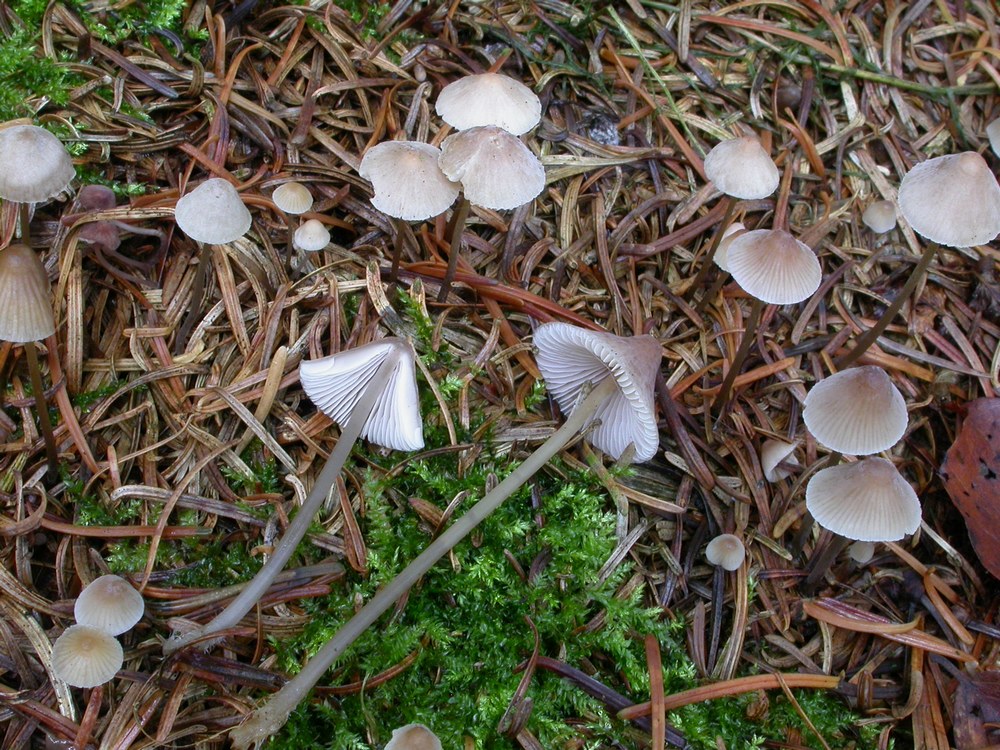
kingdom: Fungi
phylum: Basidiomycota
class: Agaricomycetes
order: Agaricales
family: Mycenaceae
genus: Mycena
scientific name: Mycena filopes
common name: jod-huesvamp
